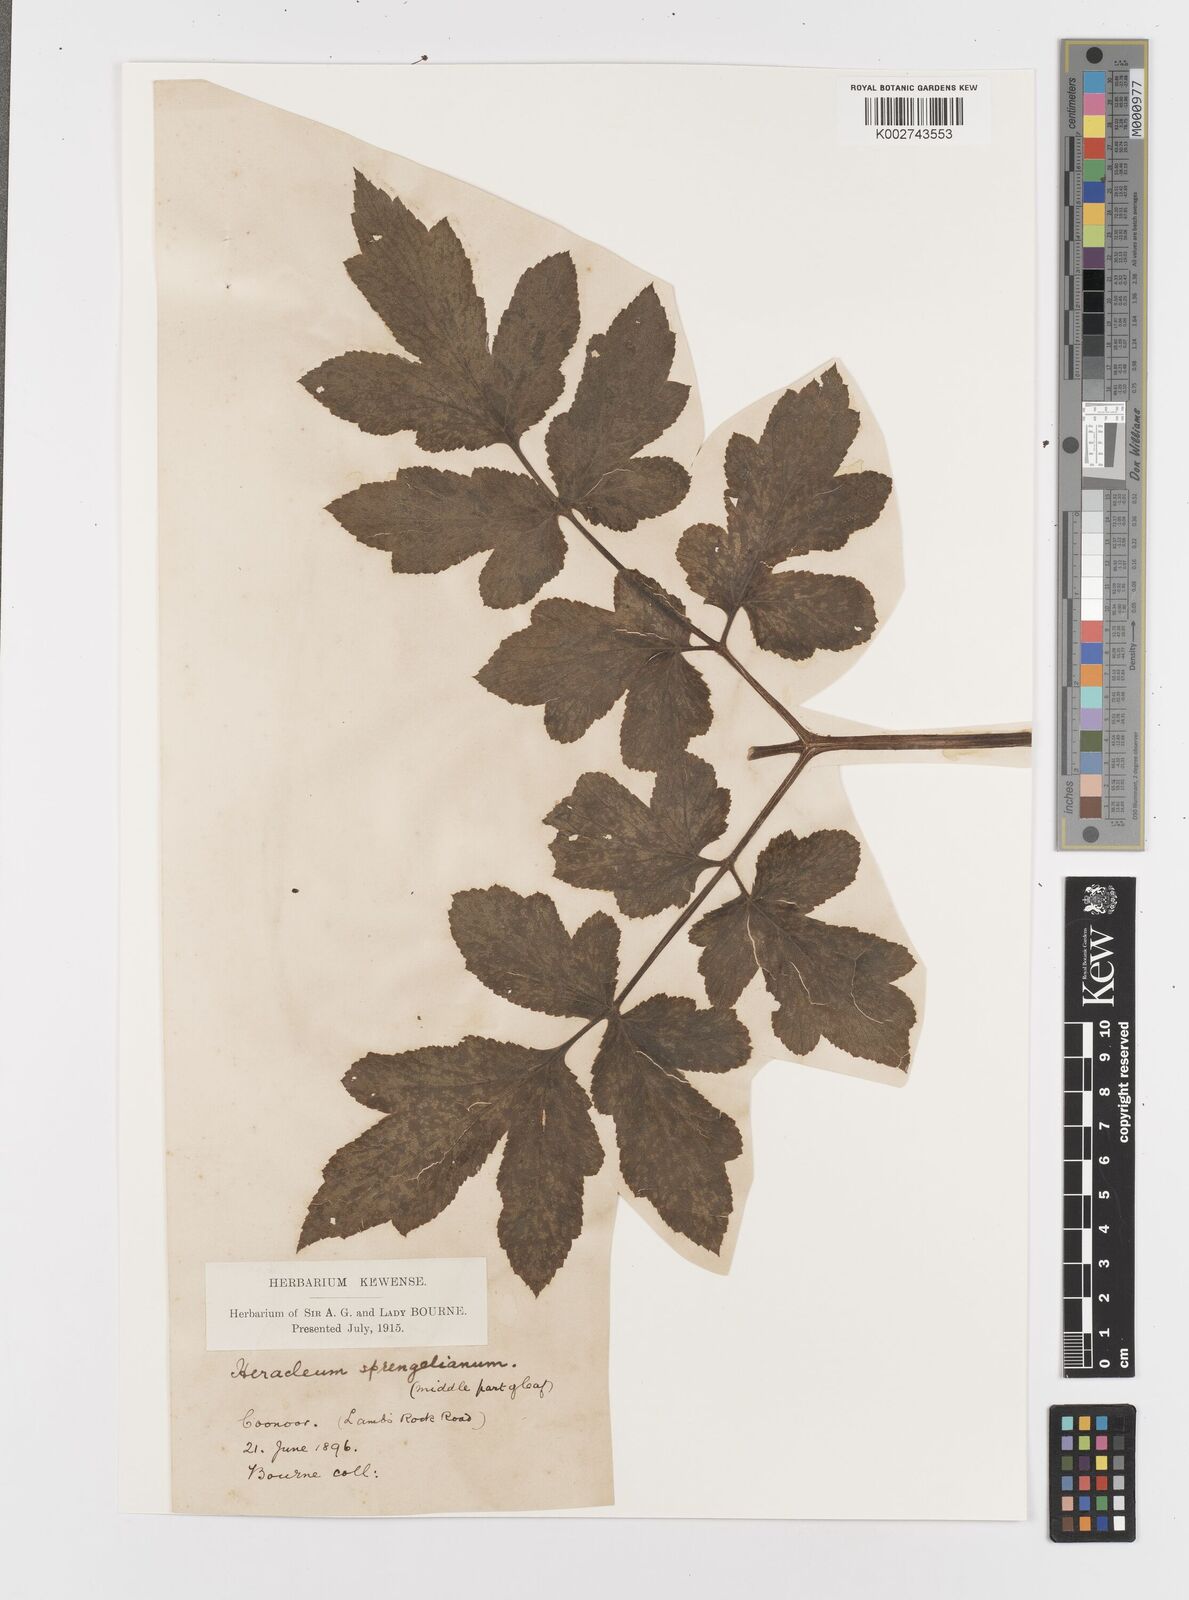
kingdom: Plantae
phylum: Tracheophyta
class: Magnoliopsida
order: Apiales
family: Apiaceae
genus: Tetrataenium
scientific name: Tetrataenium rigens
